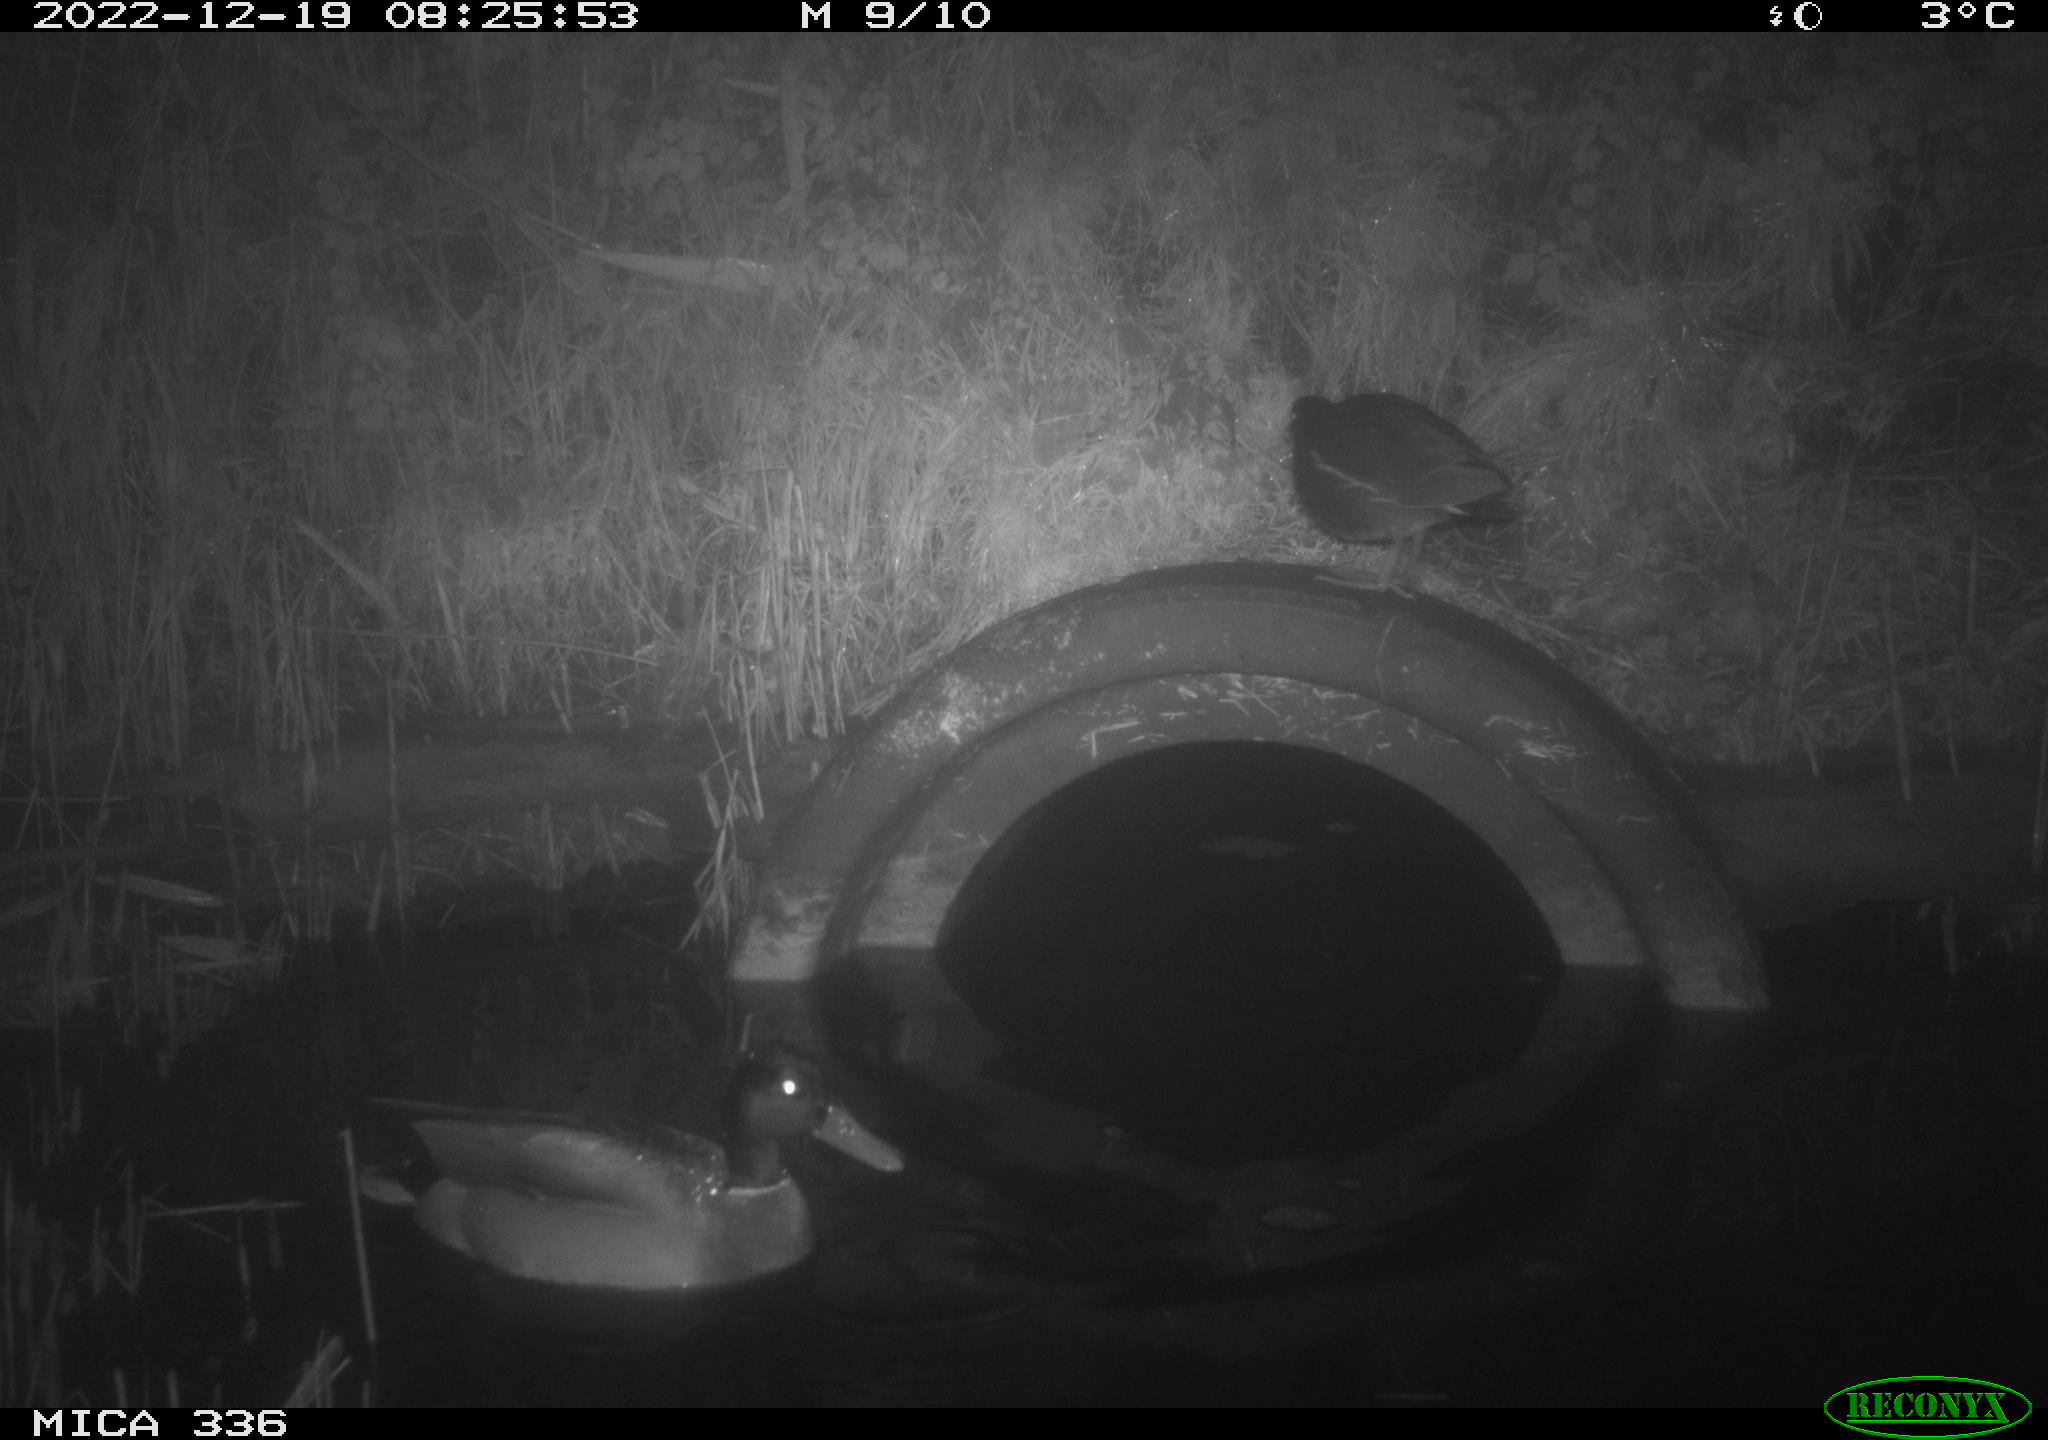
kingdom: Animalia
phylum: Chordata
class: Aves
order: Gruiformes
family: Rallidae
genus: Gallinula
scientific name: Gallinula chloropus
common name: Common moorhen
